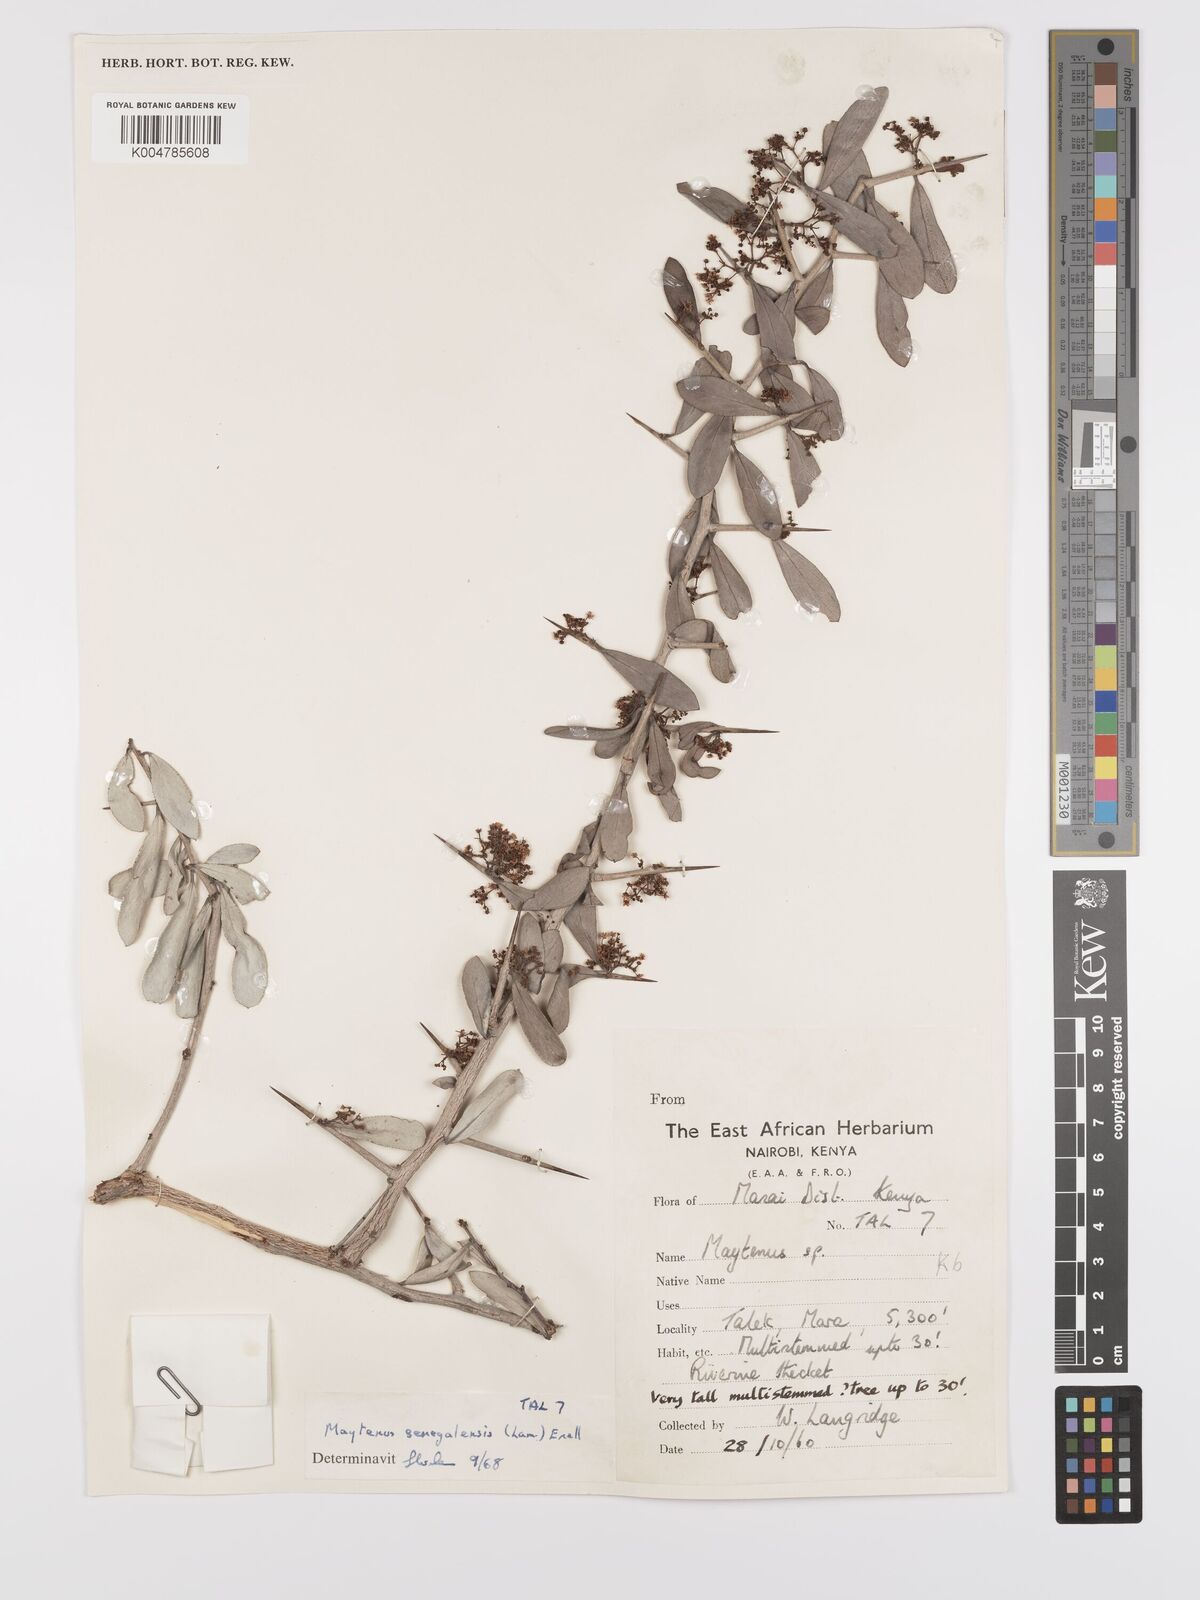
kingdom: Plantae
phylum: Tracheophyta
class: Magnoliopsida
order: Celastrales
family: Celastraceae
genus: Gymnosporia
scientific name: Gymnosporia senegalensis
